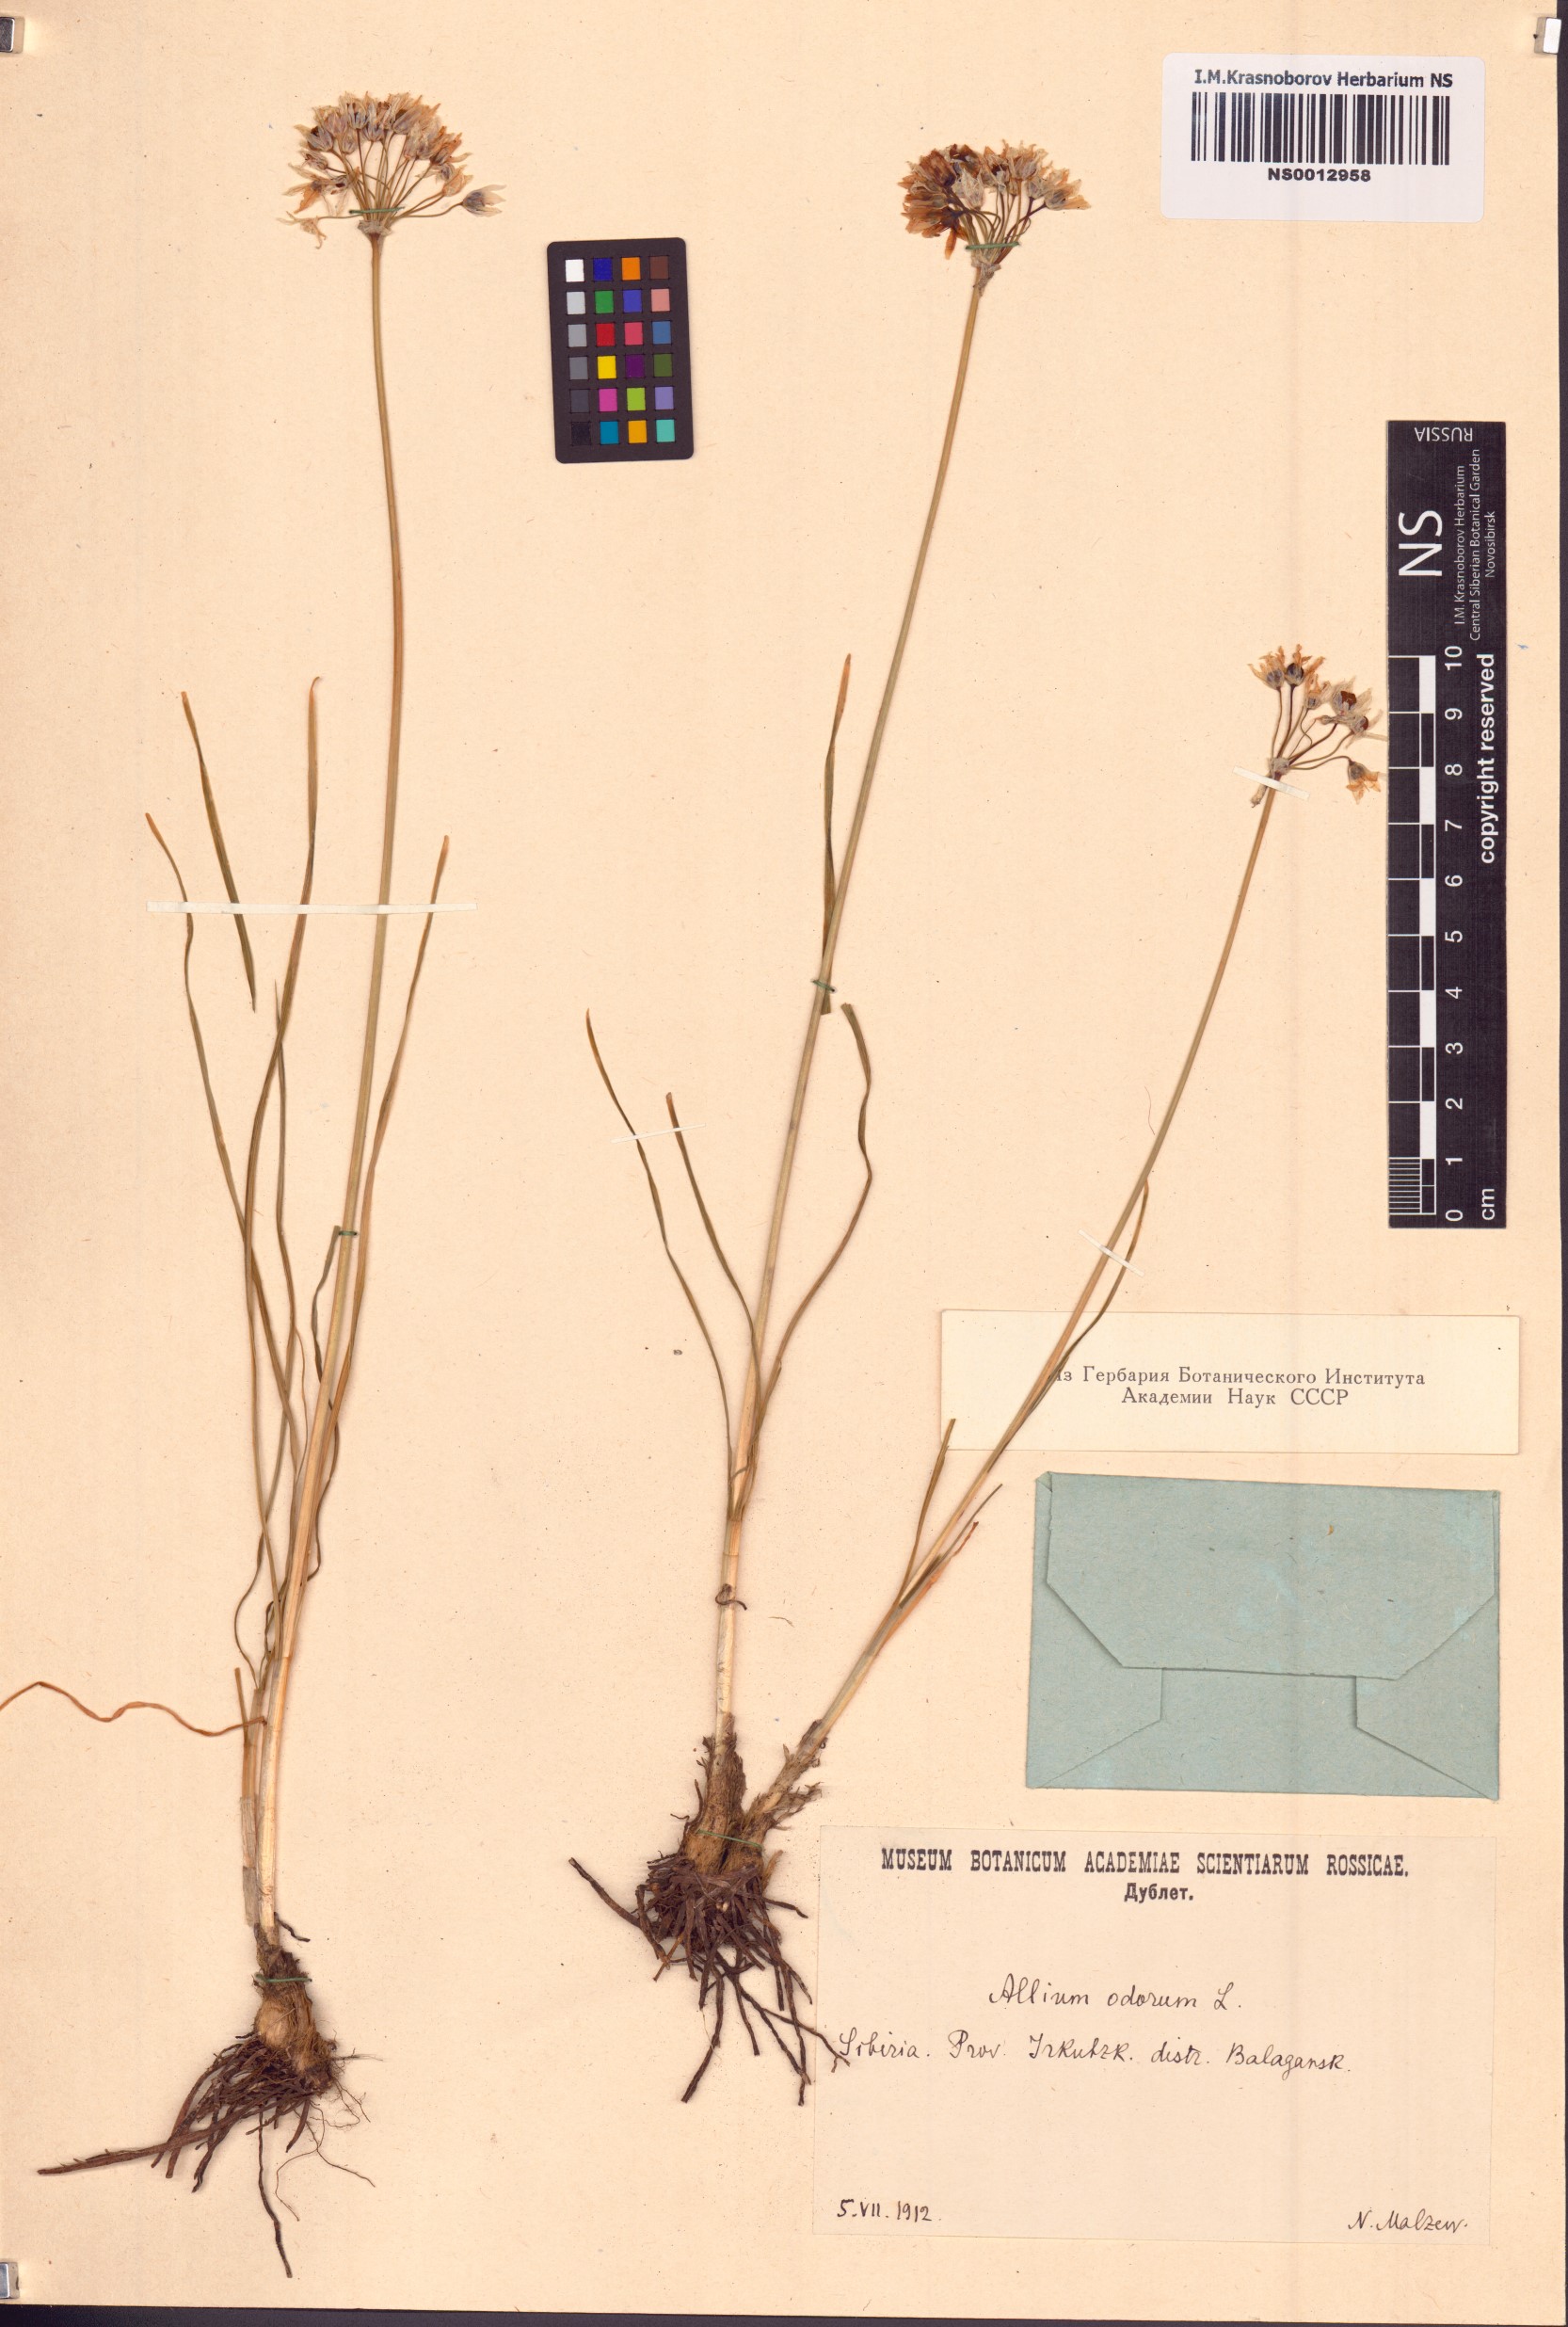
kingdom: Plantae
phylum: Tracheophyta
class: Liliopsida
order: Asparagales
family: Amaryllidaceae
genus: Allium
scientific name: Allium ramosum
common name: Fragrant garlic
